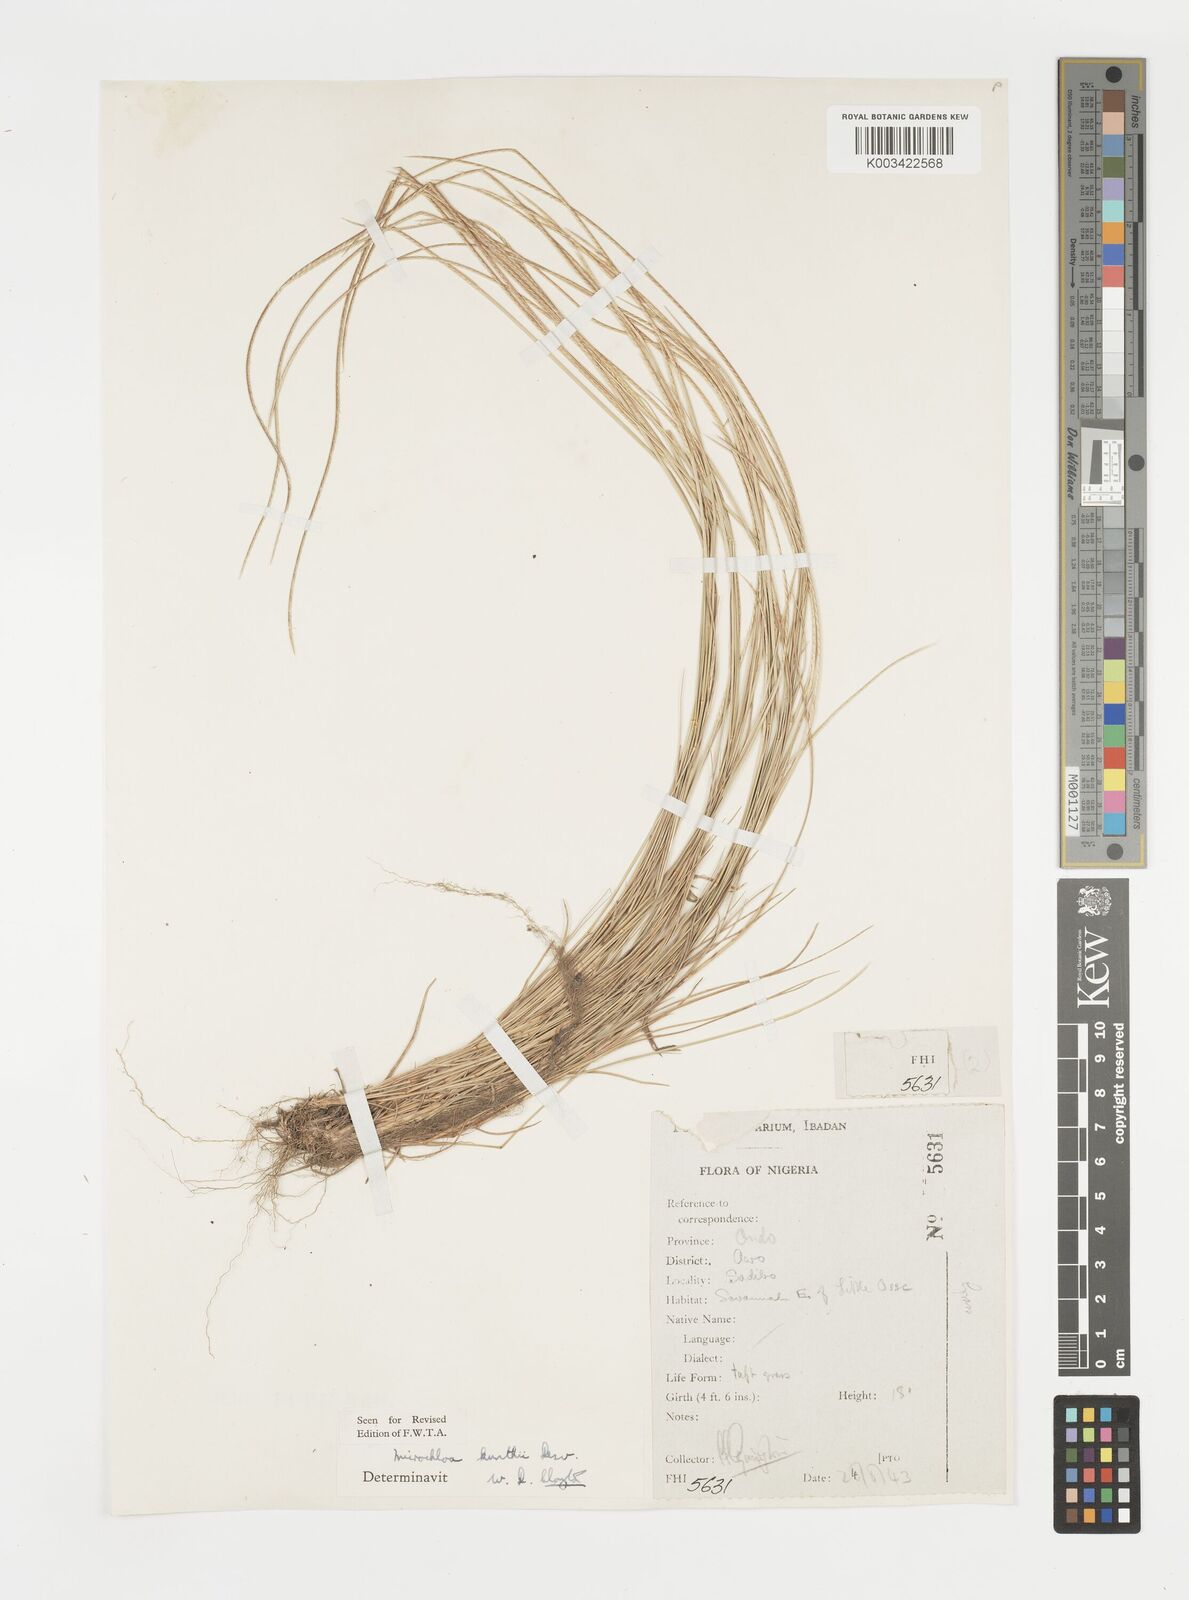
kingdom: Plantae
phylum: Tracheophyta
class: Liliopsida
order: Poales
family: Poaceae
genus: Microchloa
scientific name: Microchloa kunthii
